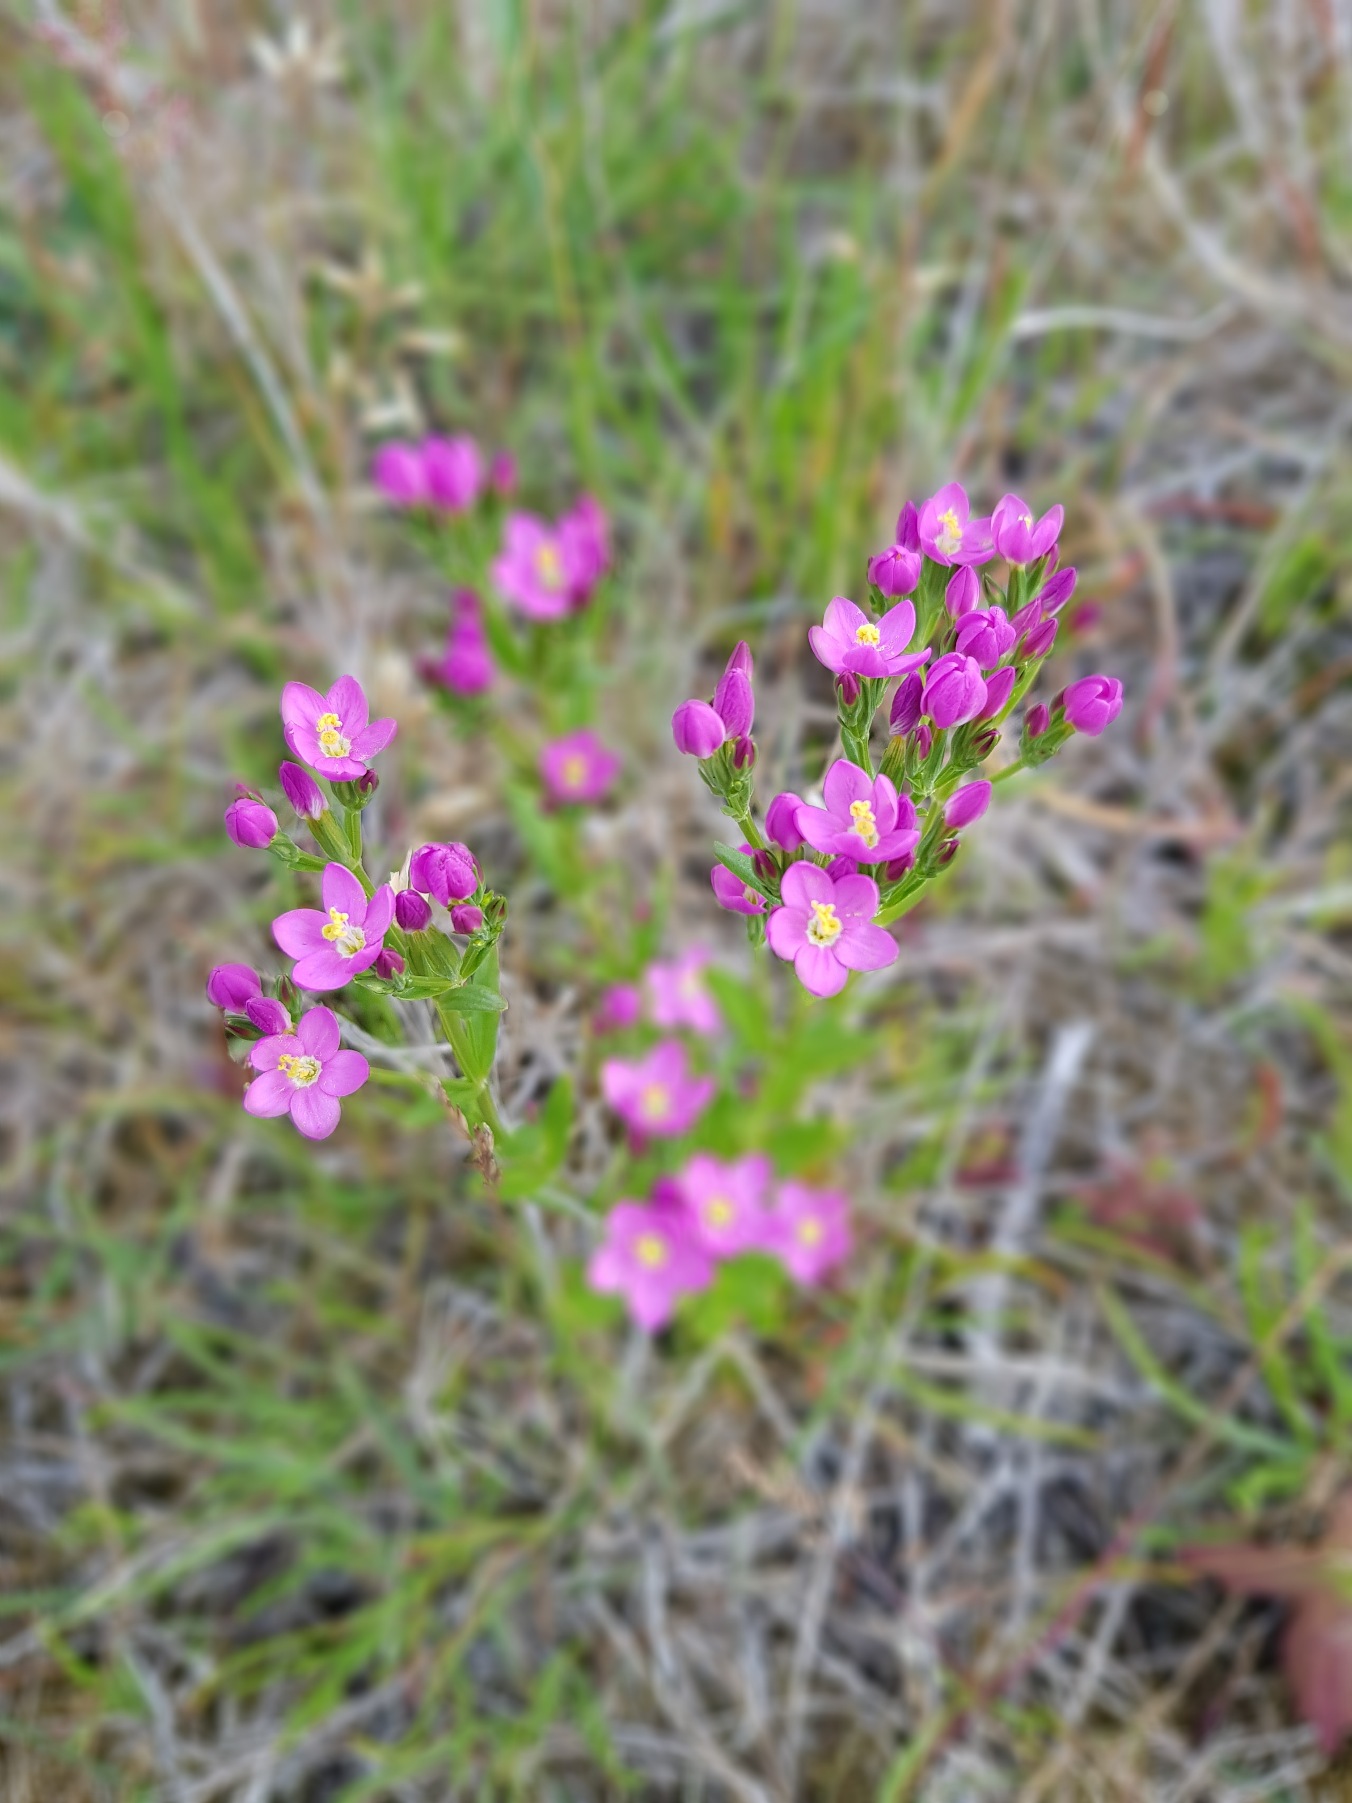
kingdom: Plantae
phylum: Tracheophyta
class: Magnoliopsida
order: Gentianales
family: Gentianaceae
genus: Centaurium
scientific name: Centaurium littorale
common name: Strand-tusindgylden
